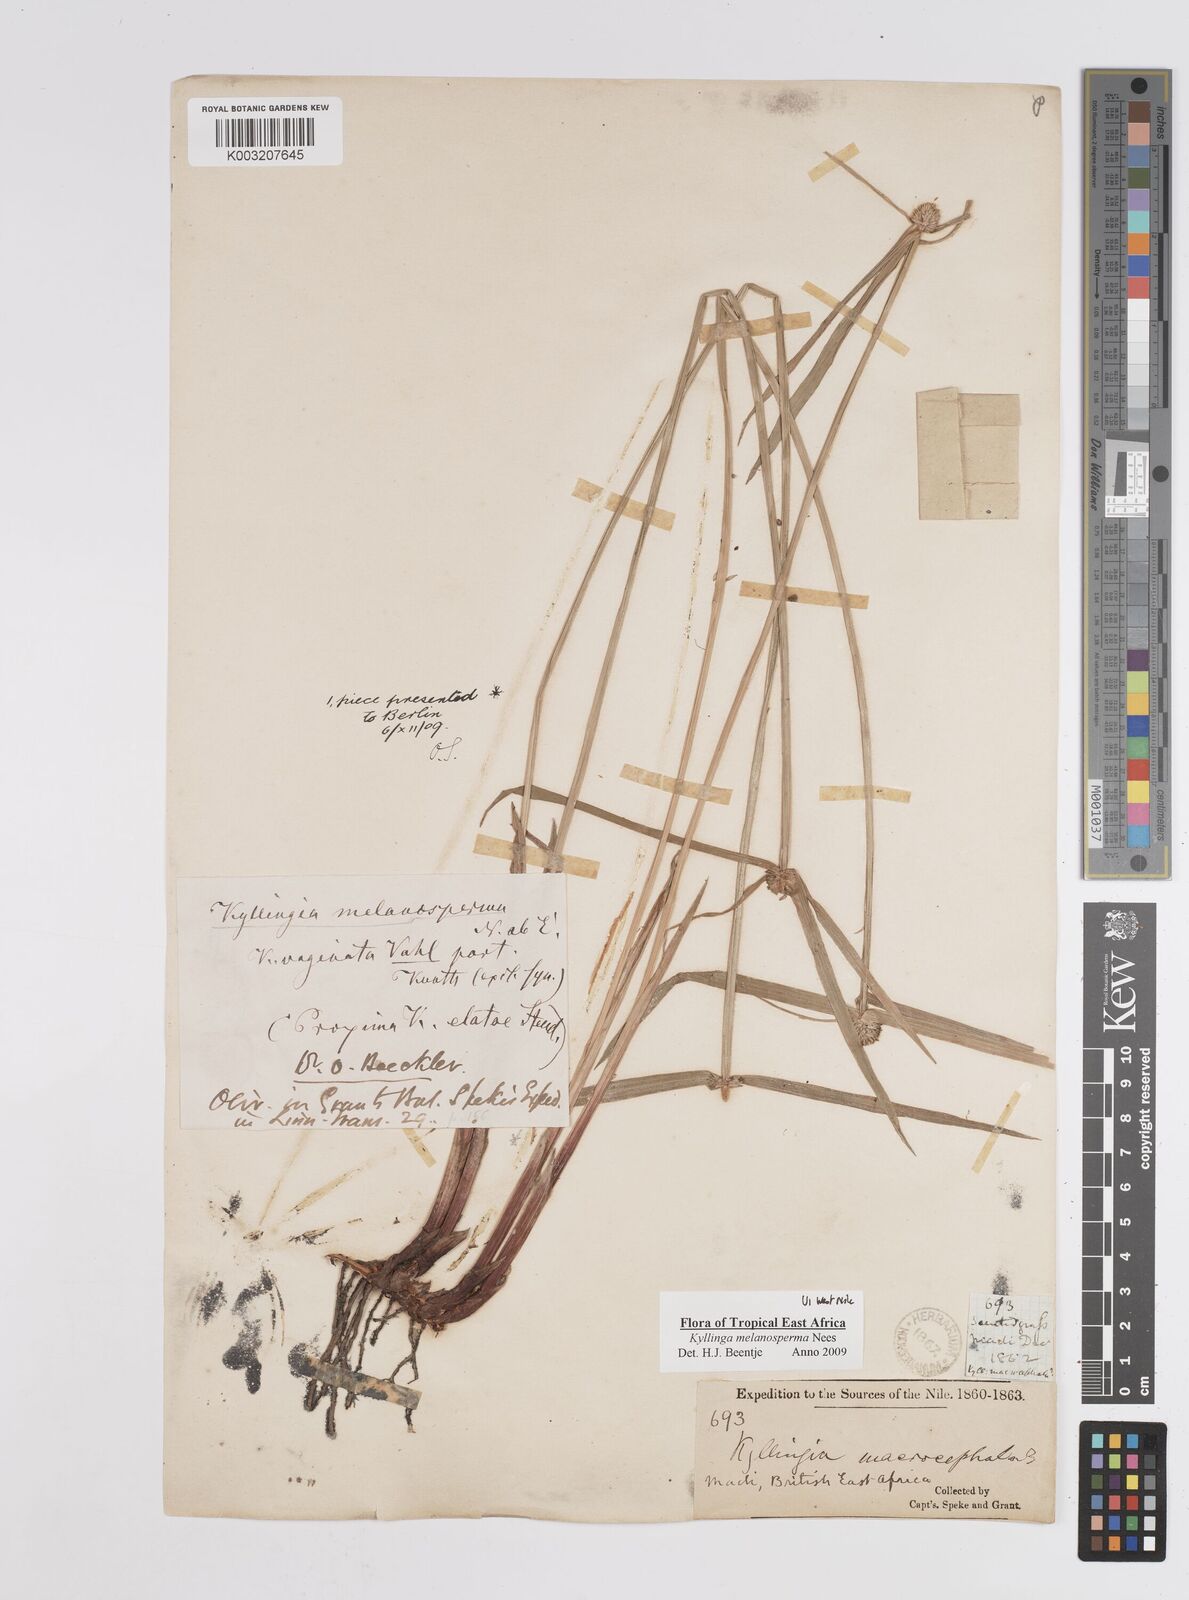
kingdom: Plantae
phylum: Tracheophyta
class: Liliopsida
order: Poales
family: Cyperaceae
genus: Cyperus
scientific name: Cyperus melanospermus
